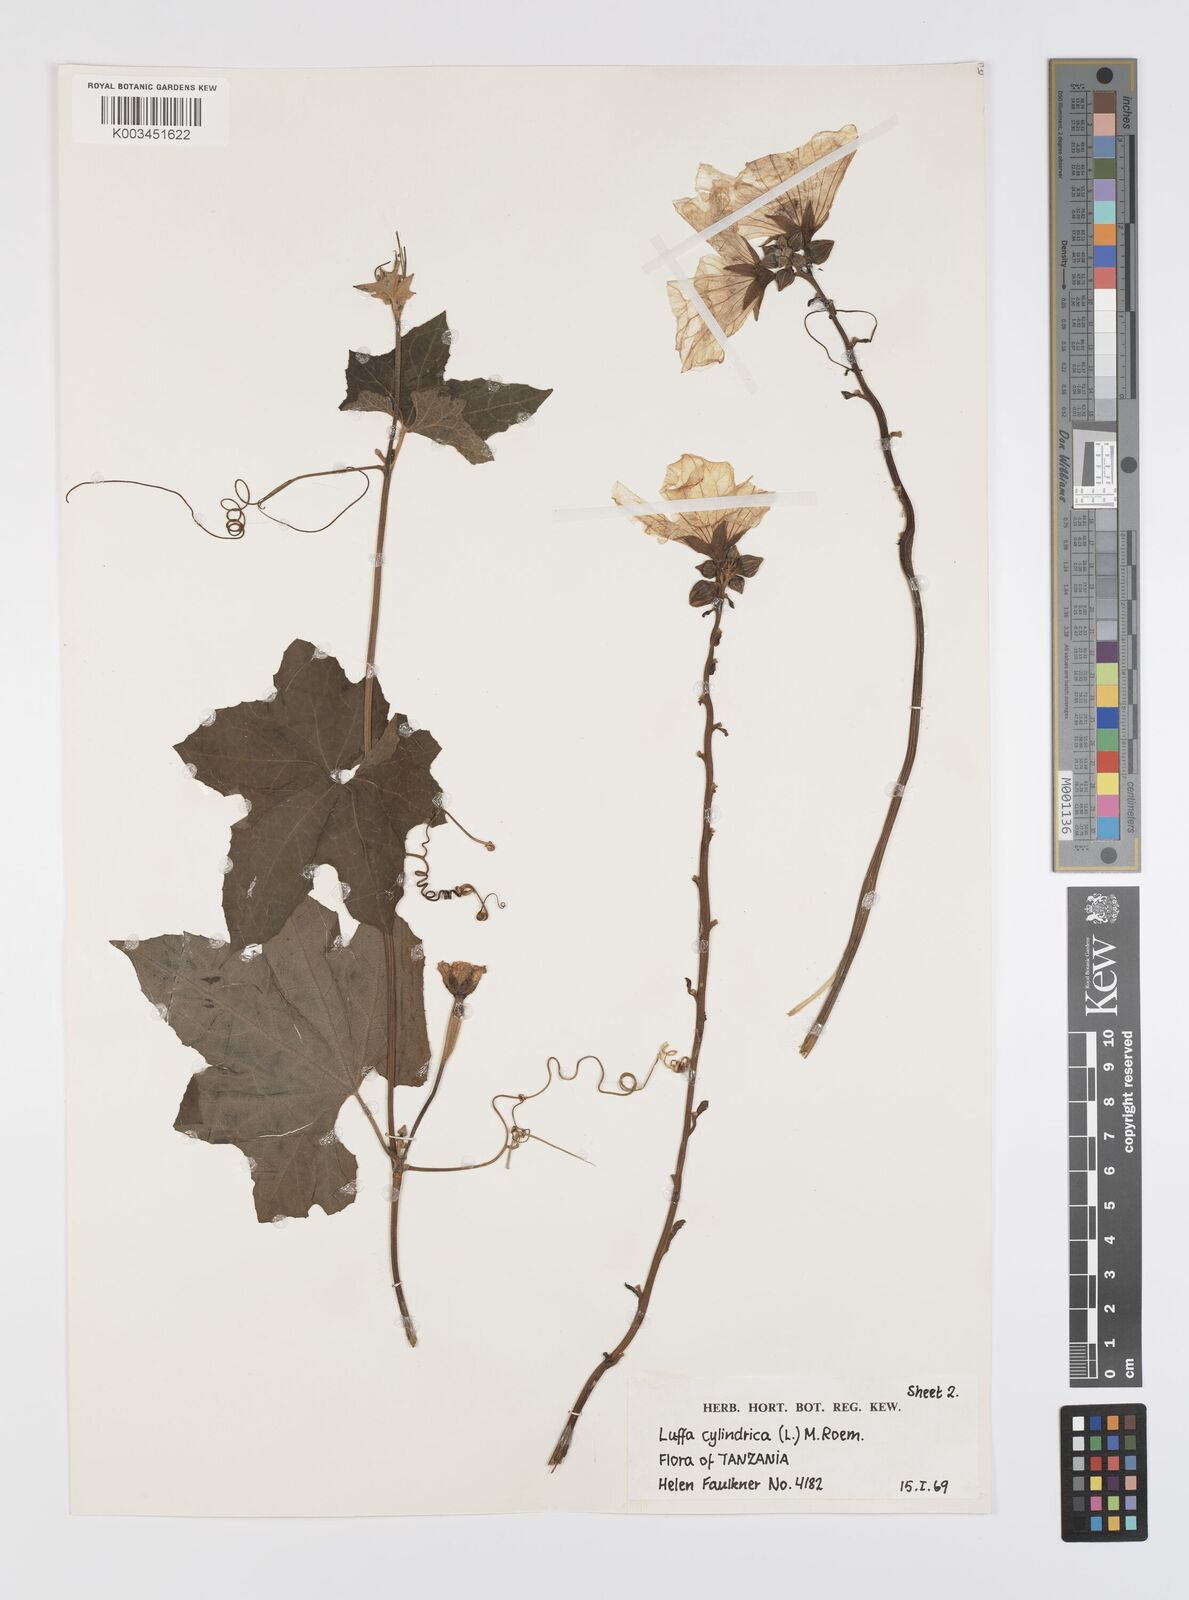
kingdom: Plantae
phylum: Tracheophyta
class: Magnoliopsida
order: Cucurbitales
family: Cucurbitaceae
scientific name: Cucurbitaceae
